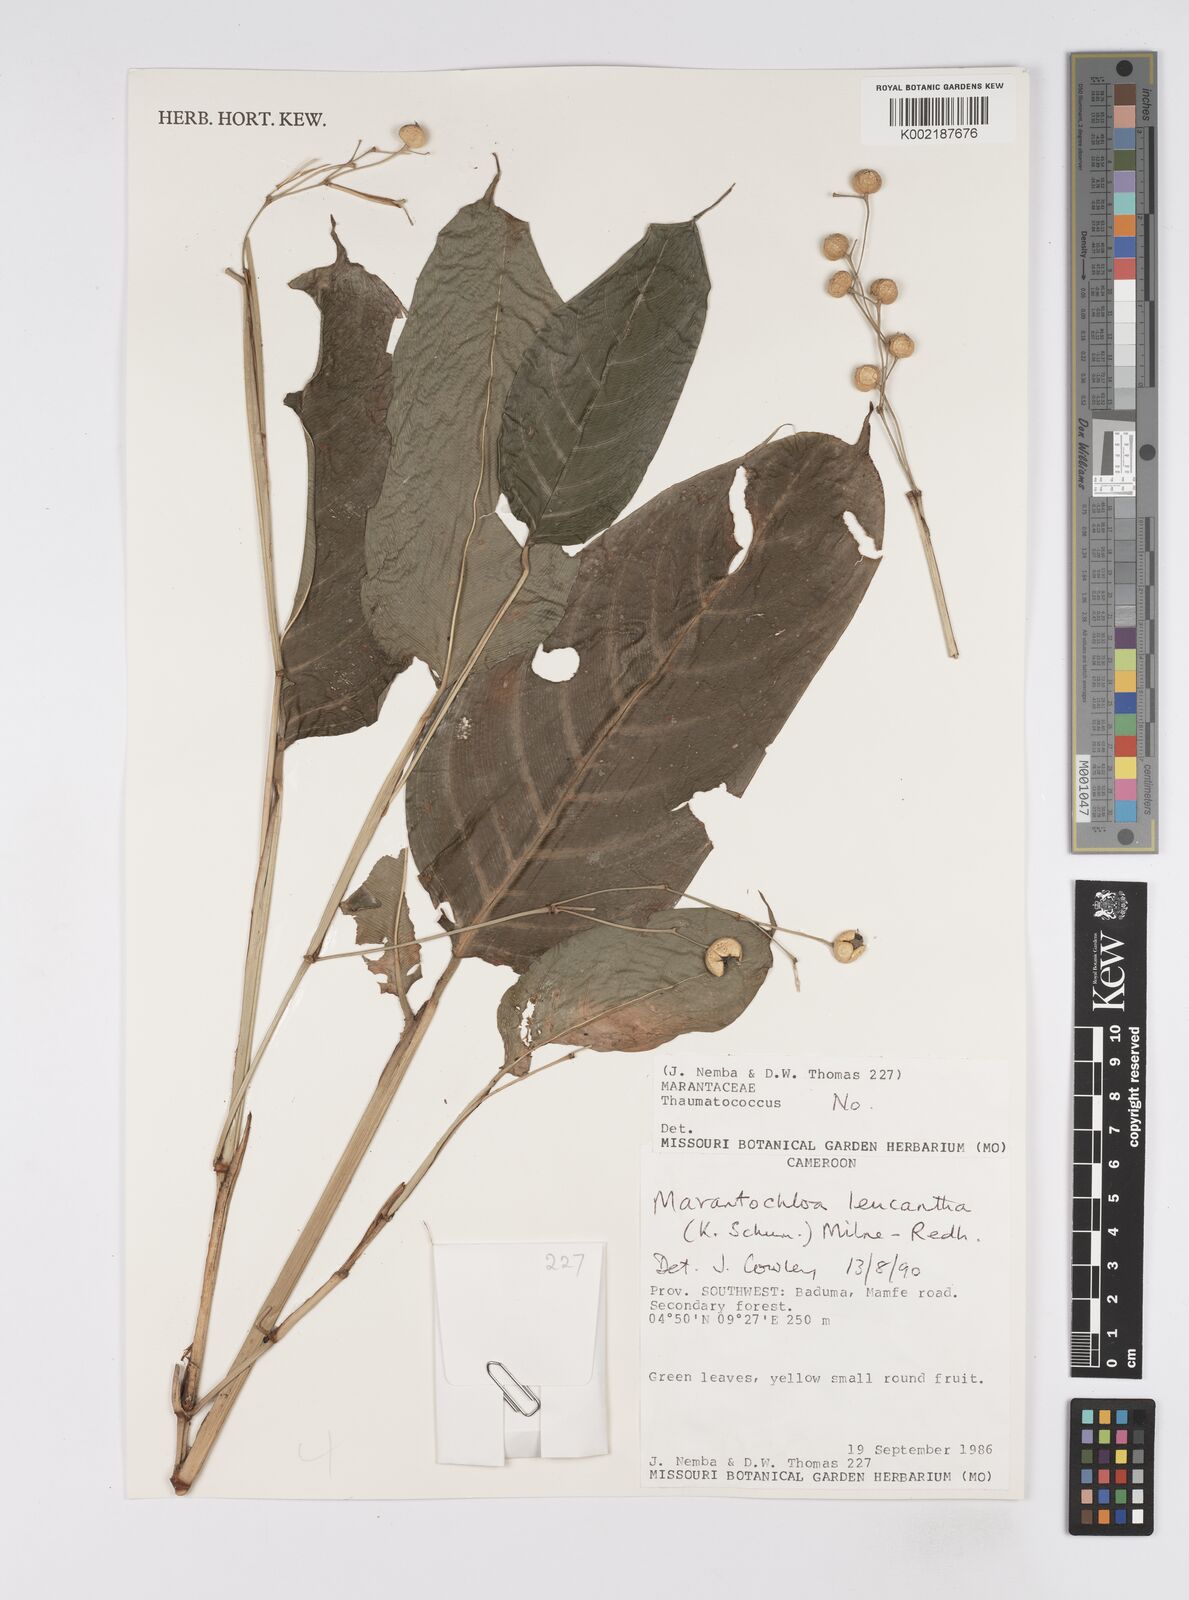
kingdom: Plantae
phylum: Tracheophyta
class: Liliopsida
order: Zingiberales
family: Marantaceae
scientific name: Marantaceae
